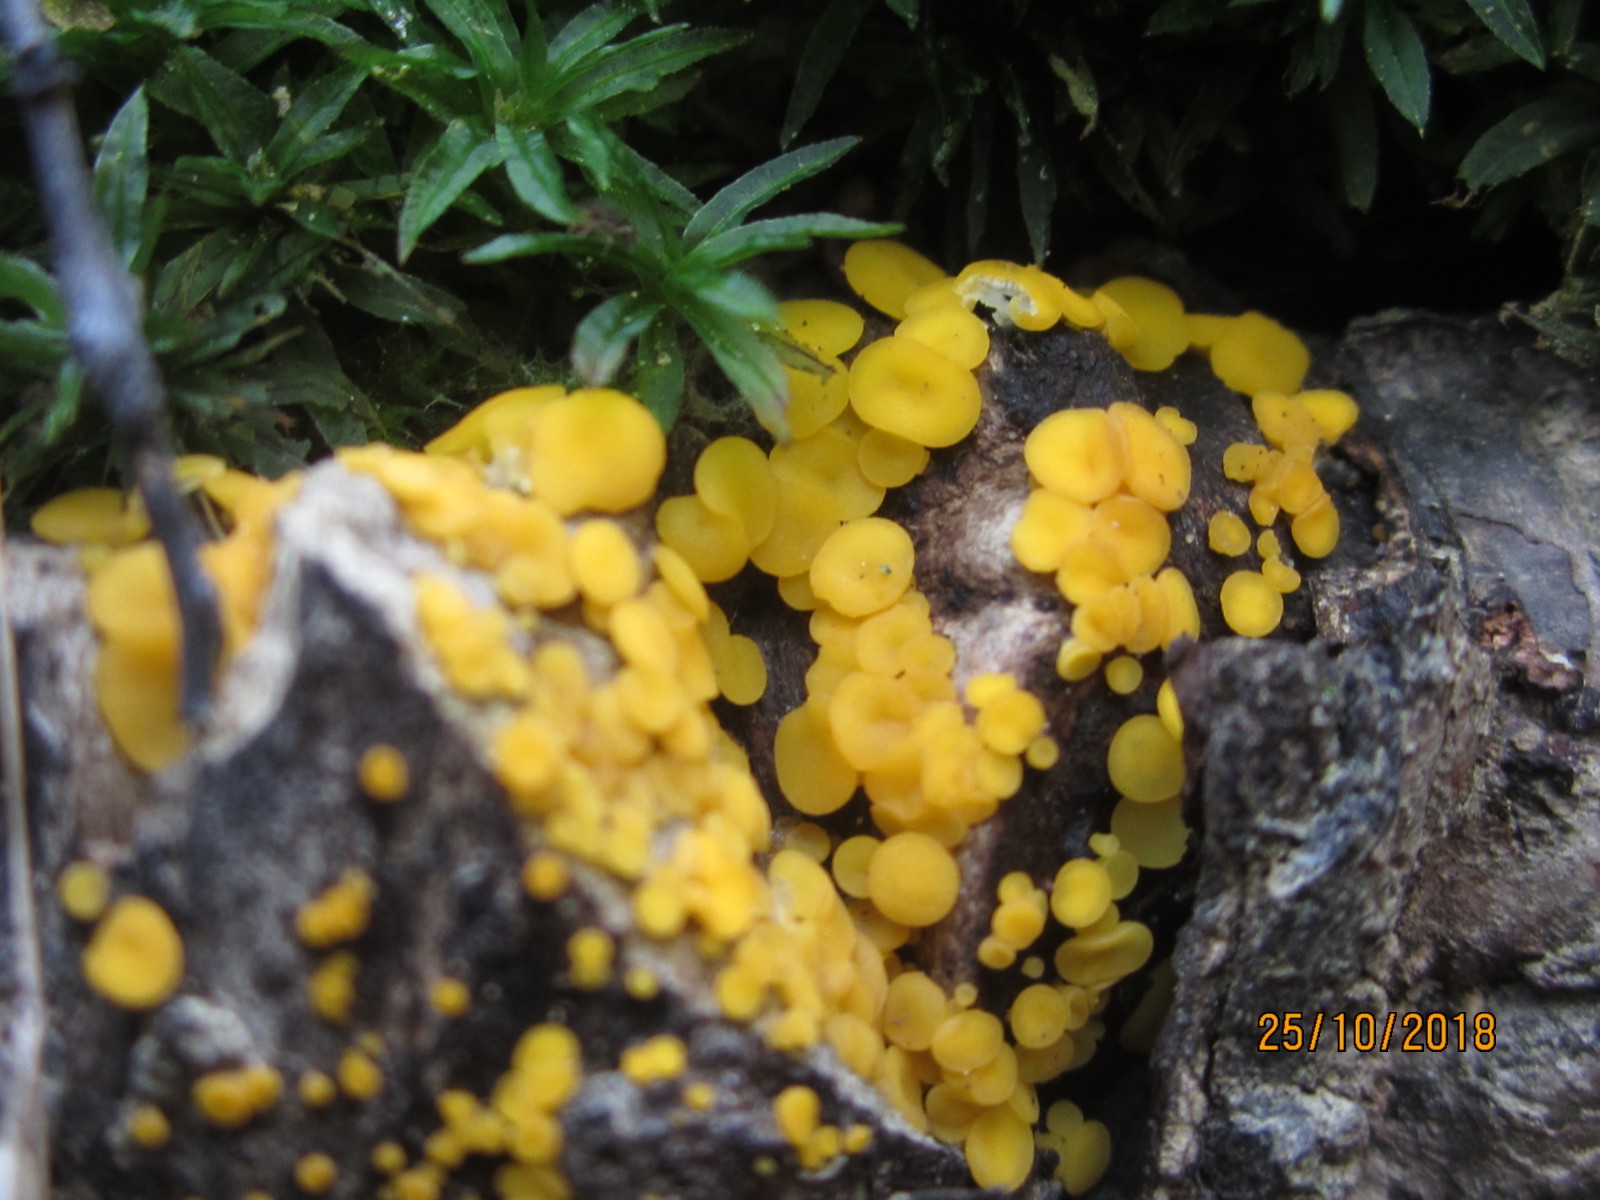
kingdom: Fungi
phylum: Ascomycota
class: Leotiomycetes
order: Helotiales
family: Pezizellaceae
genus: Calycina
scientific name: Calycina citrina
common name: almindelig gulskive
